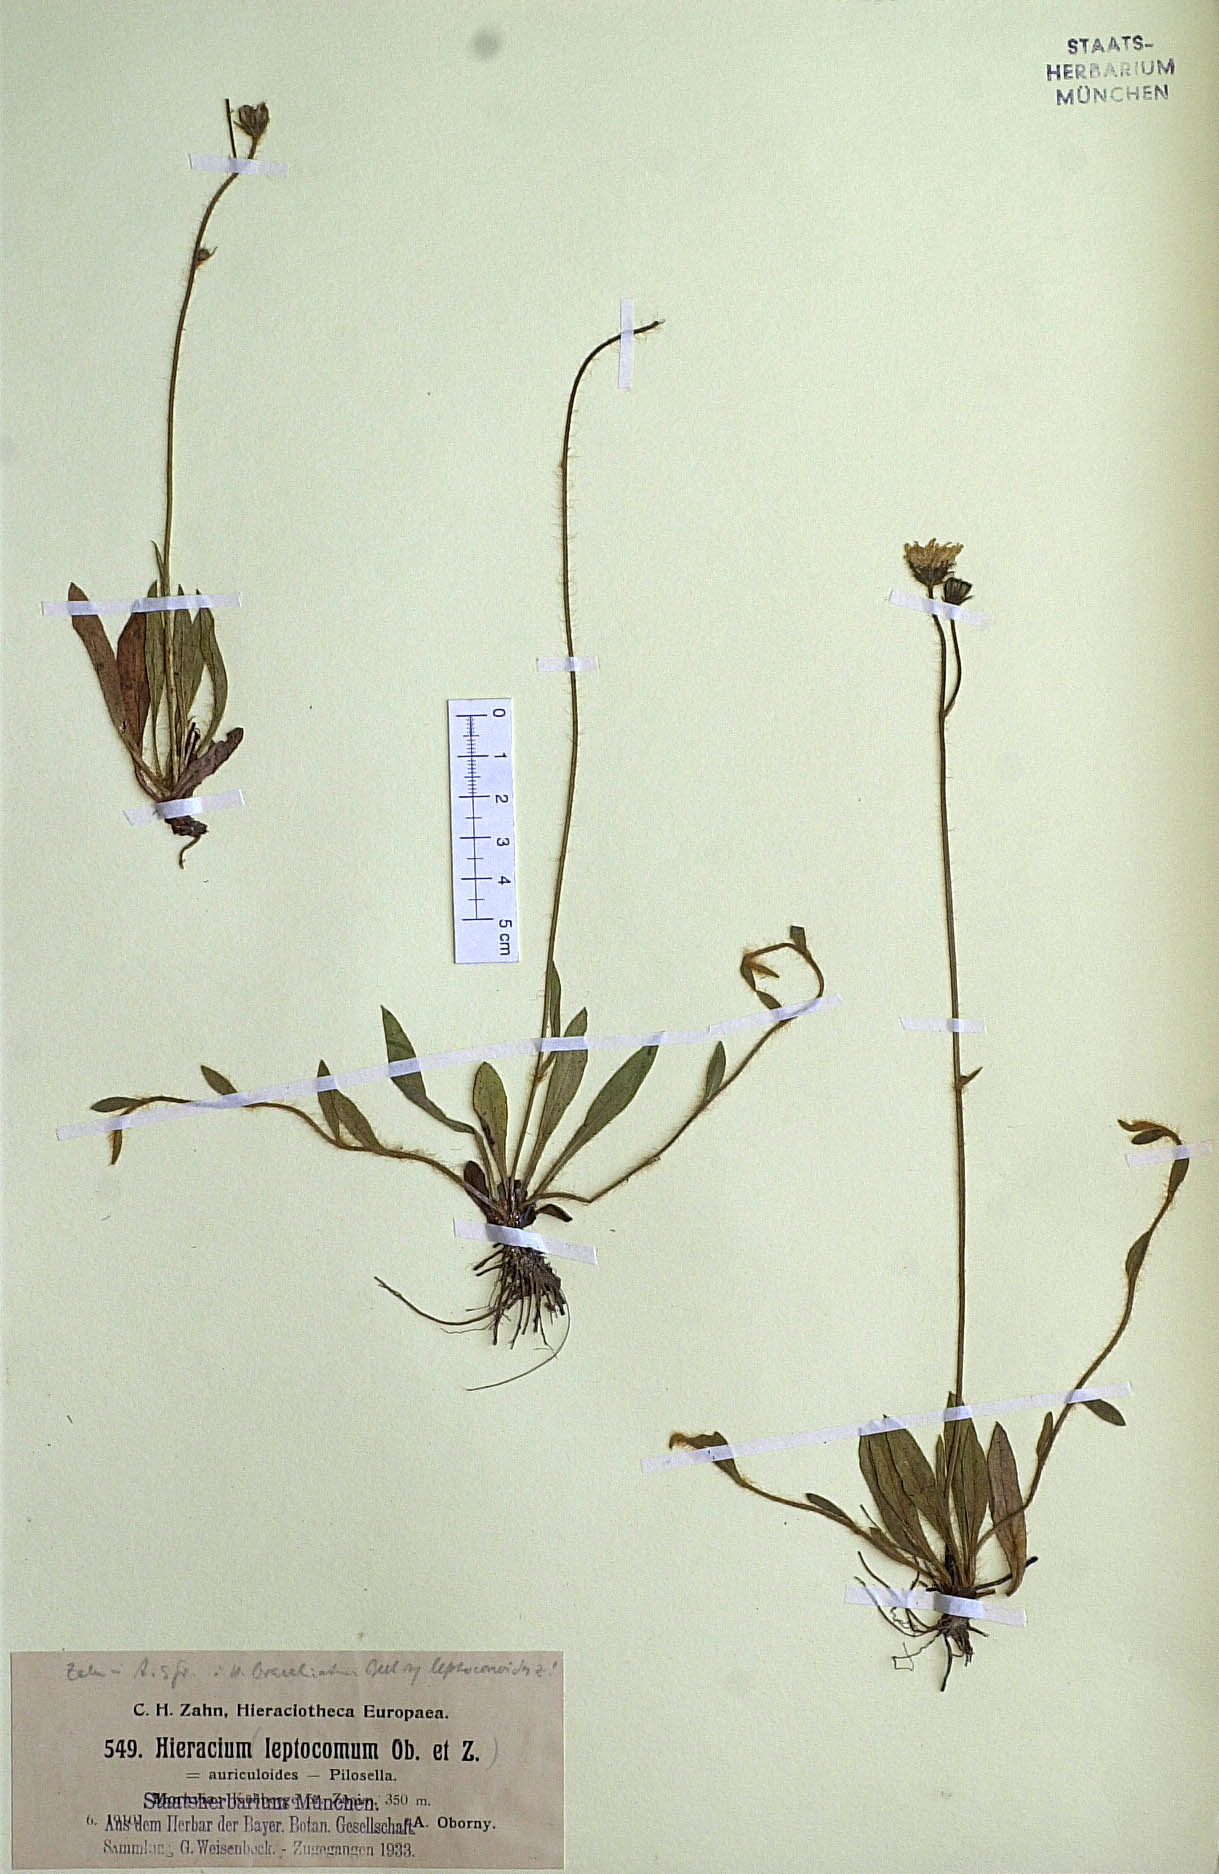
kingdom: Plantae
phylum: Tracheophyta
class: Magnoliopsida
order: Asterales
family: Asteraceae
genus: Pilosella
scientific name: Pilosella acutifolia
